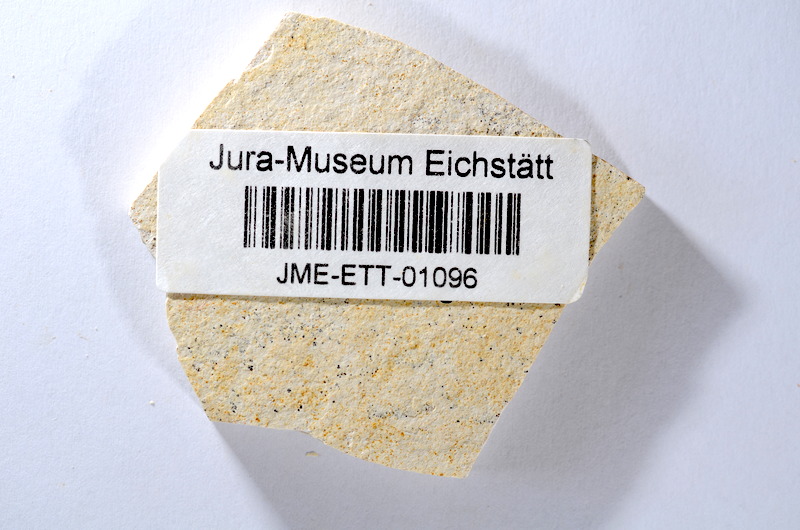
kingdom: Animalia
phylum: Chordata
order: Salmoniformes
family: Orthogonikleithridae
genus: Orthogonikleithrus
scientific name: Orthogonikleithrus hoelli
